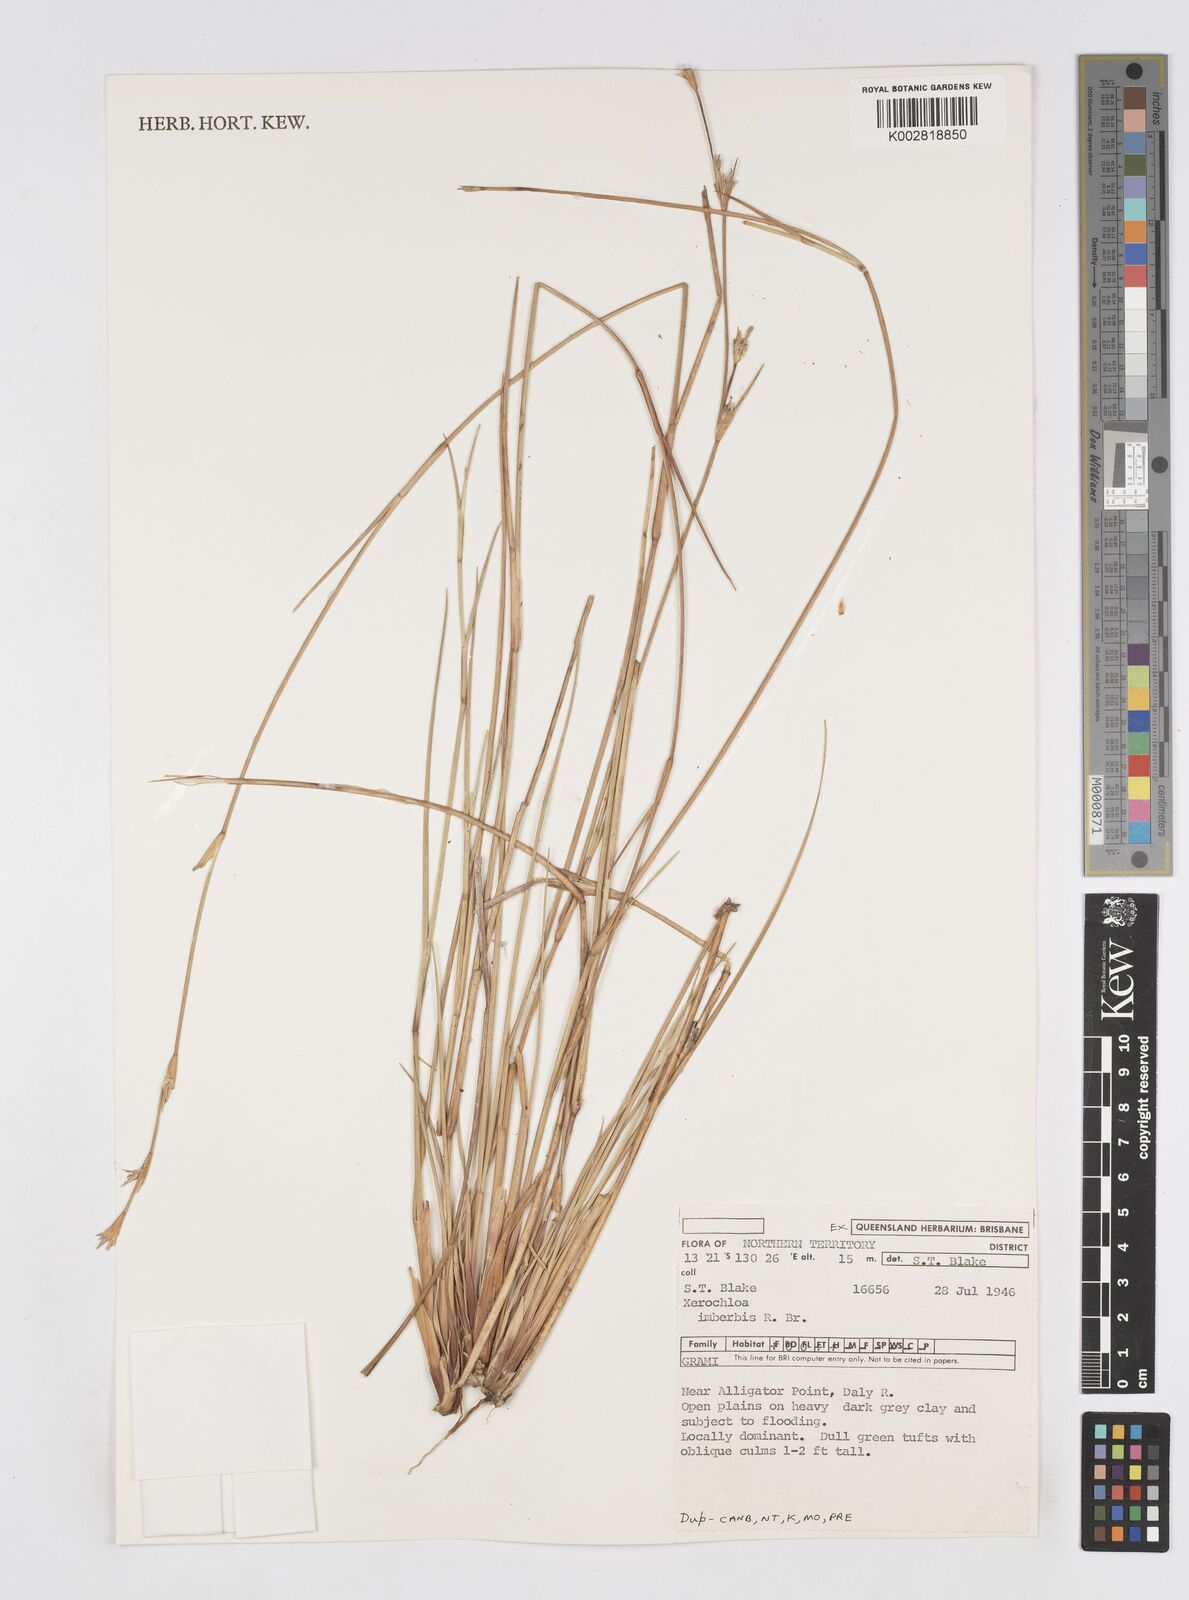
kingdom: Plantae
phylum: Tracheophyta
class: Liliopsida
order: Poales
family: Poaceae
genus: Xerochloa
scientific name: Xerochloa imberbis
